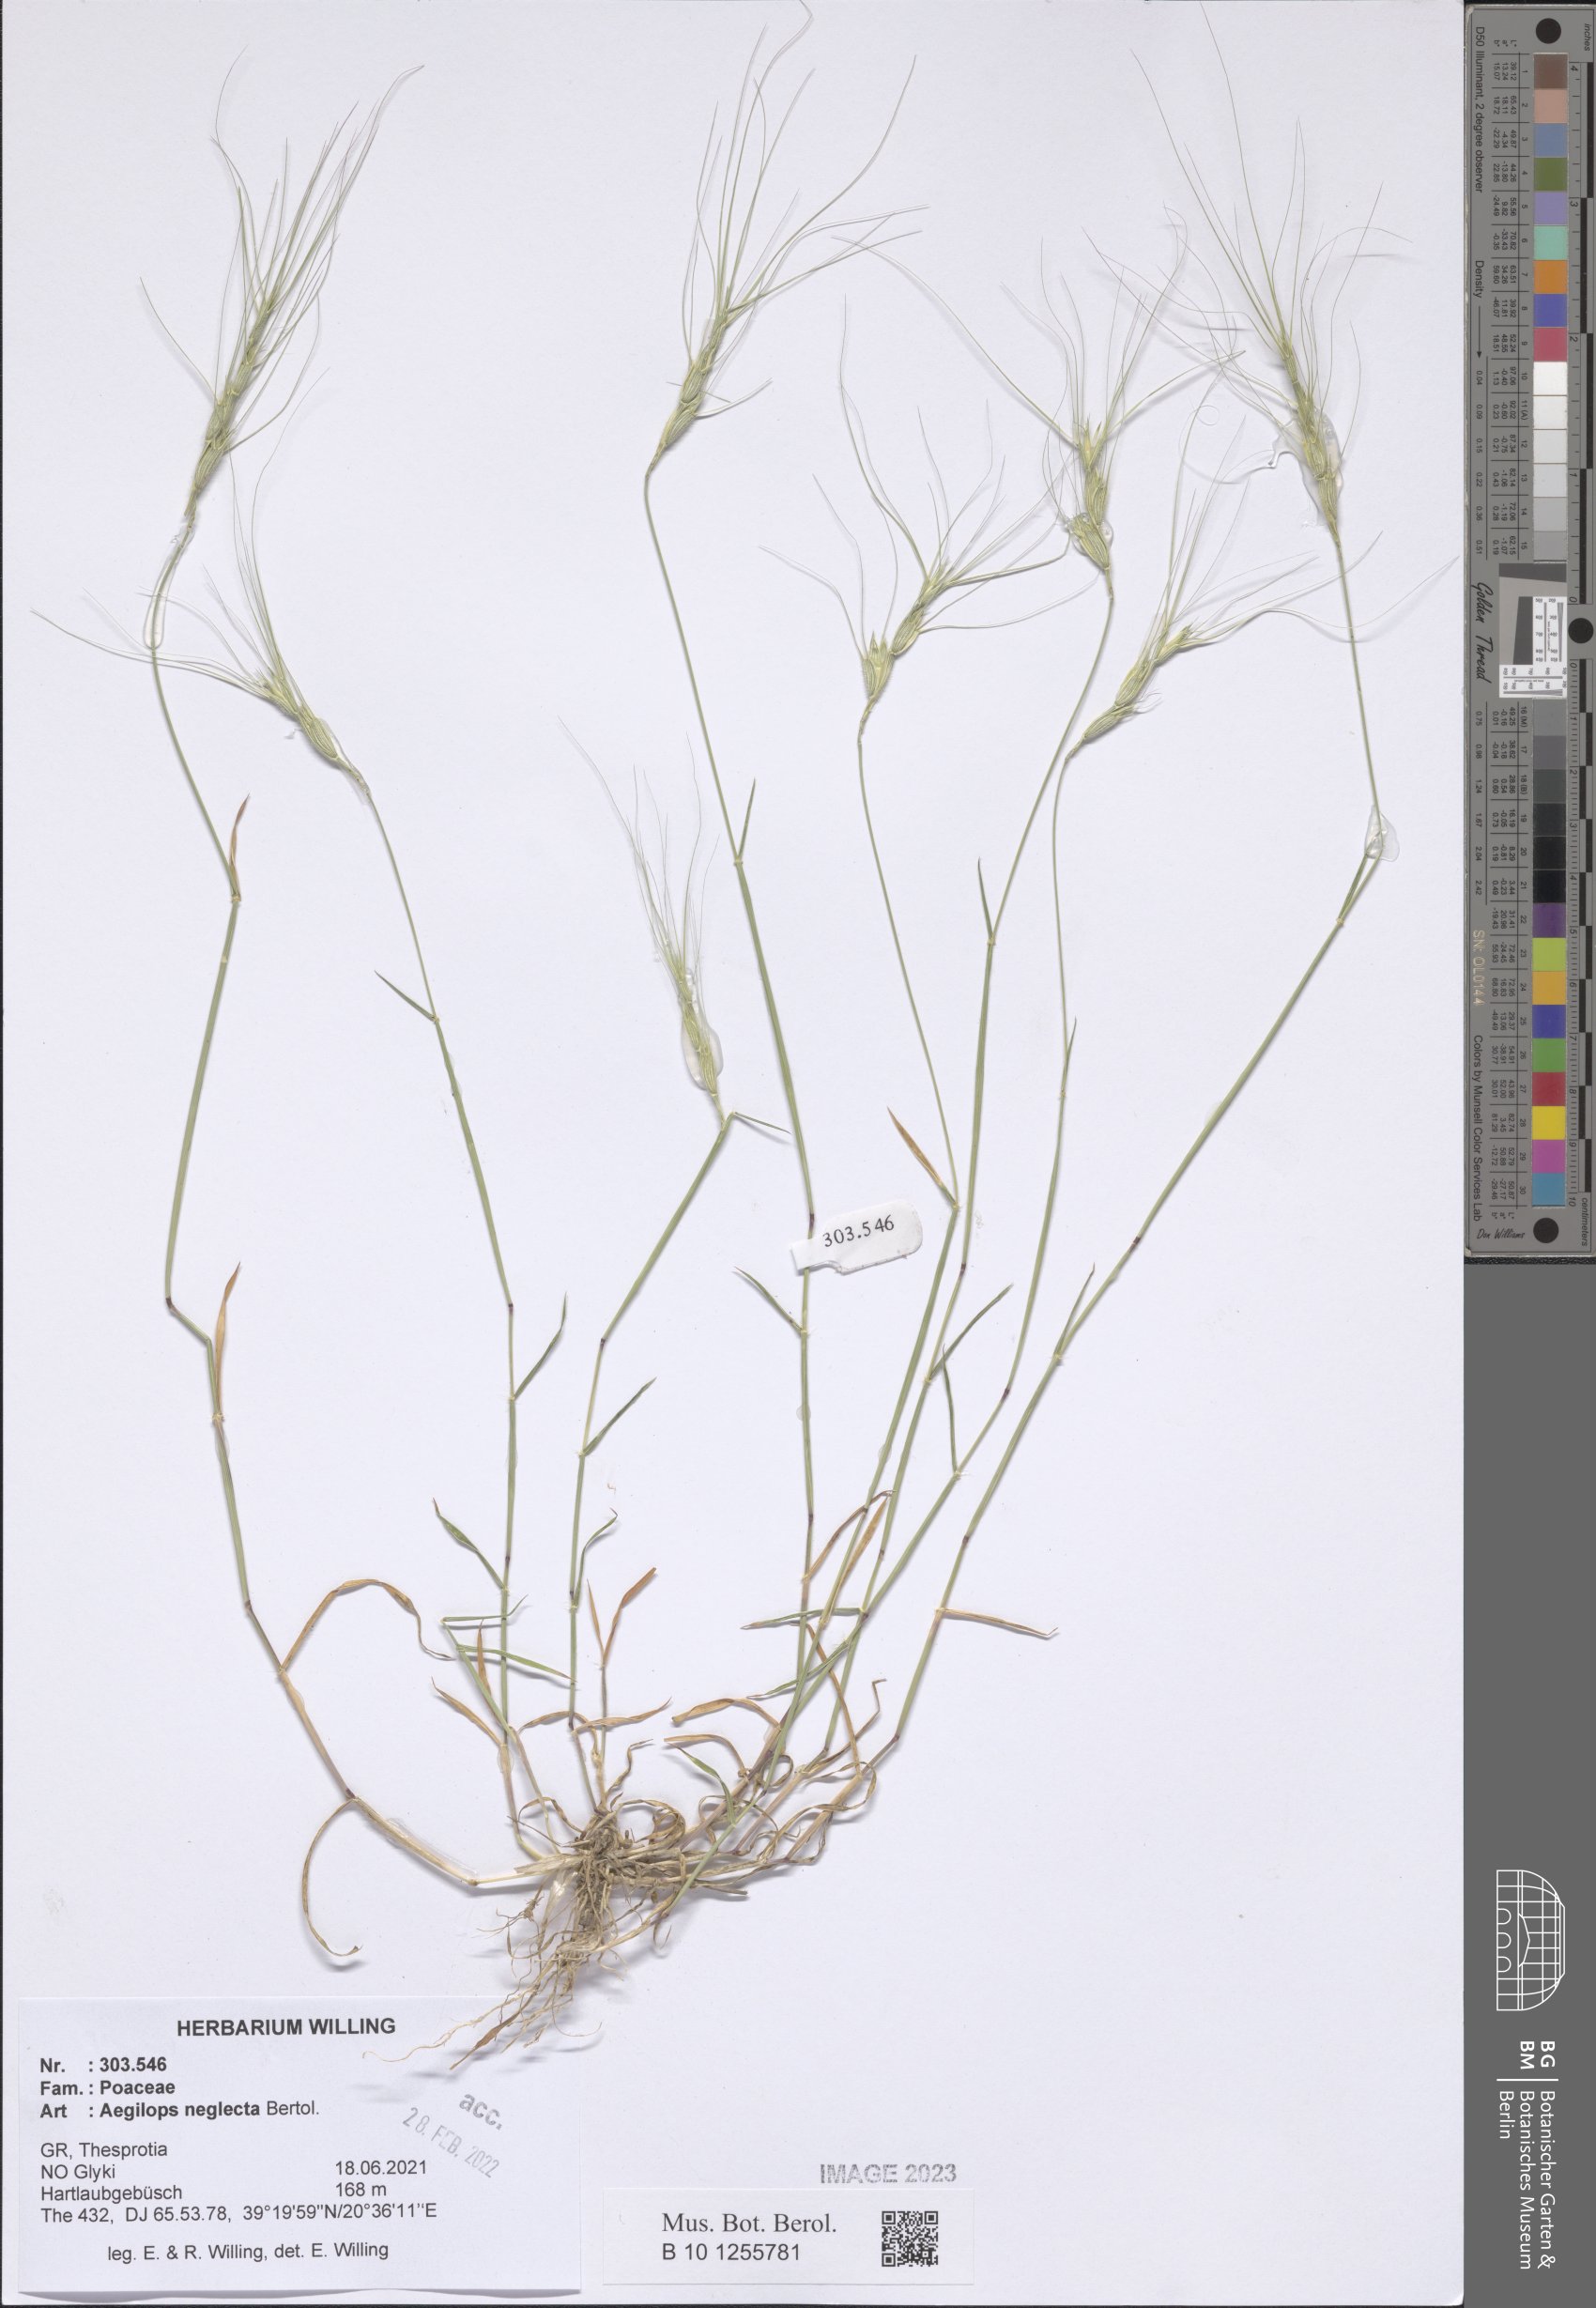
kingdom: Plantae
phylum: Tracheophyta
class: Liliopsida
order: Poales
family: Poaceae
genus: Aegilops
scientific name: Aegilops neglecta
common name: Three-awn goat grass
